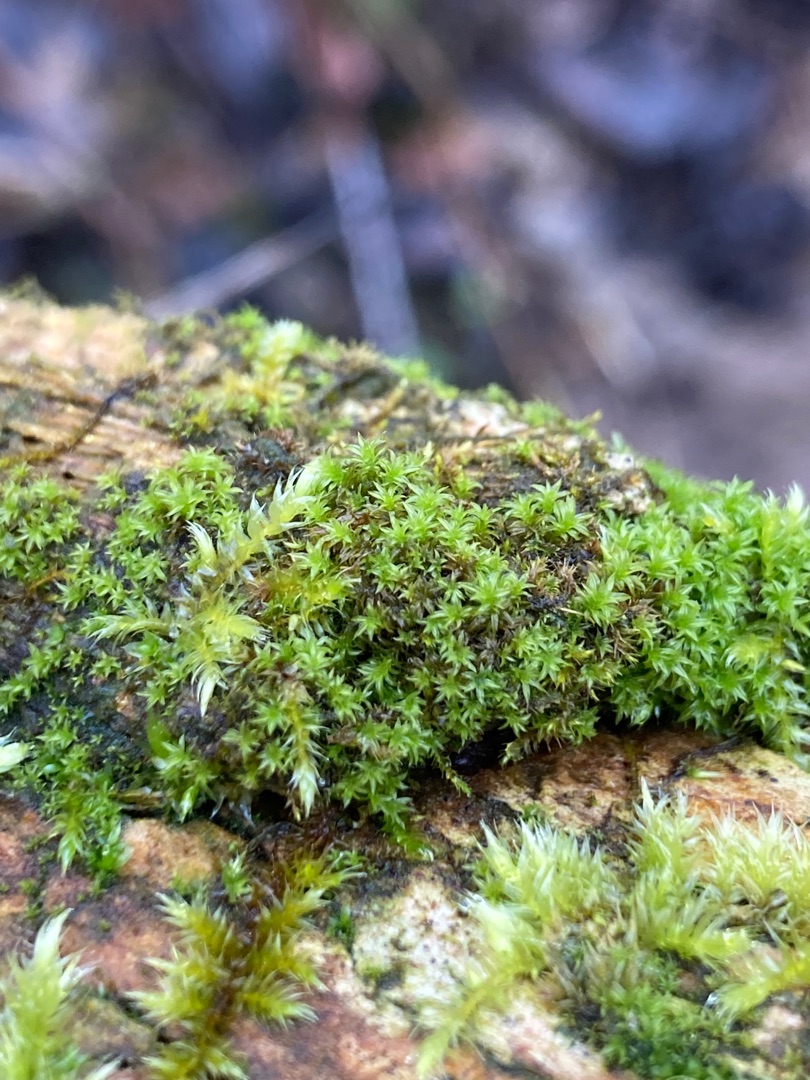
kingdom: Plantae
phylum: Bryophyta
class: Bryopsida
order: Orthotrichales
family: Orthotrichaceae
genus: Zygodon
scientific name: Zygodon viridissimus
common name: Grøn køllemos
